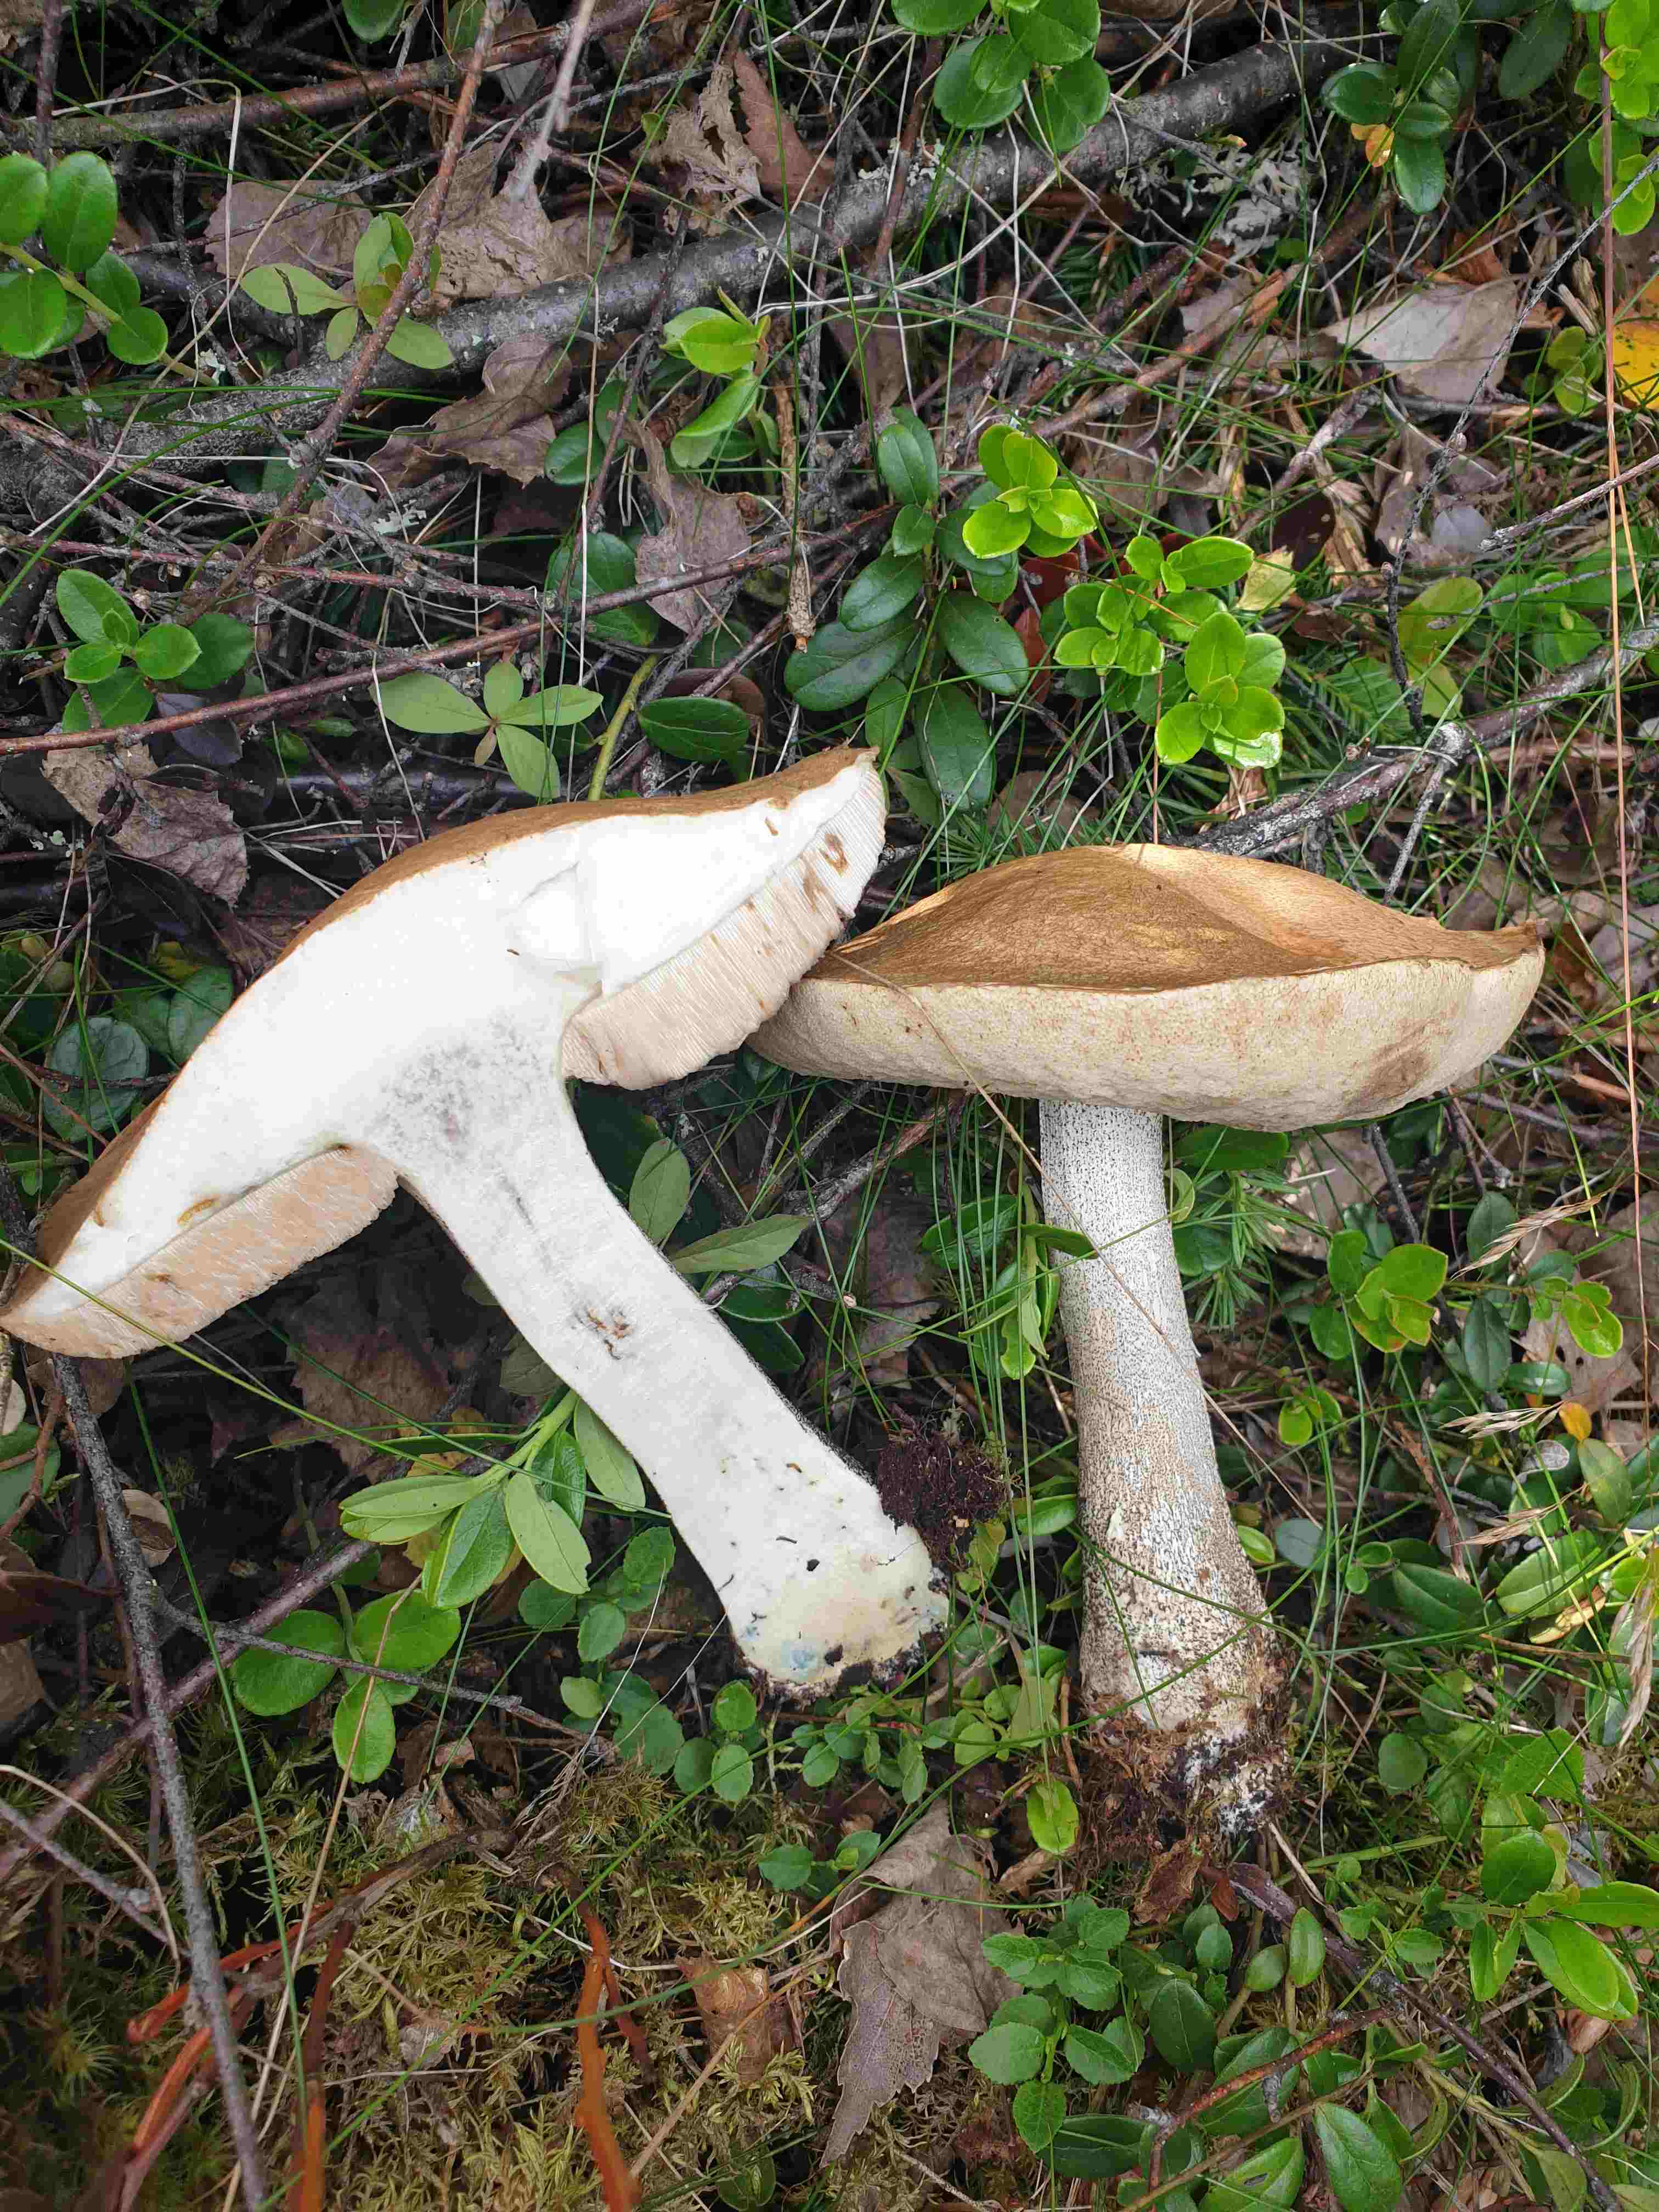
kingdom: Fungi
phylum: Basidiomycota
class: Agaricomycetes
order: Boletales
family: Boletaceae
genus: Leccinum
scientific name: Leccinum
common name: skælrørhat
